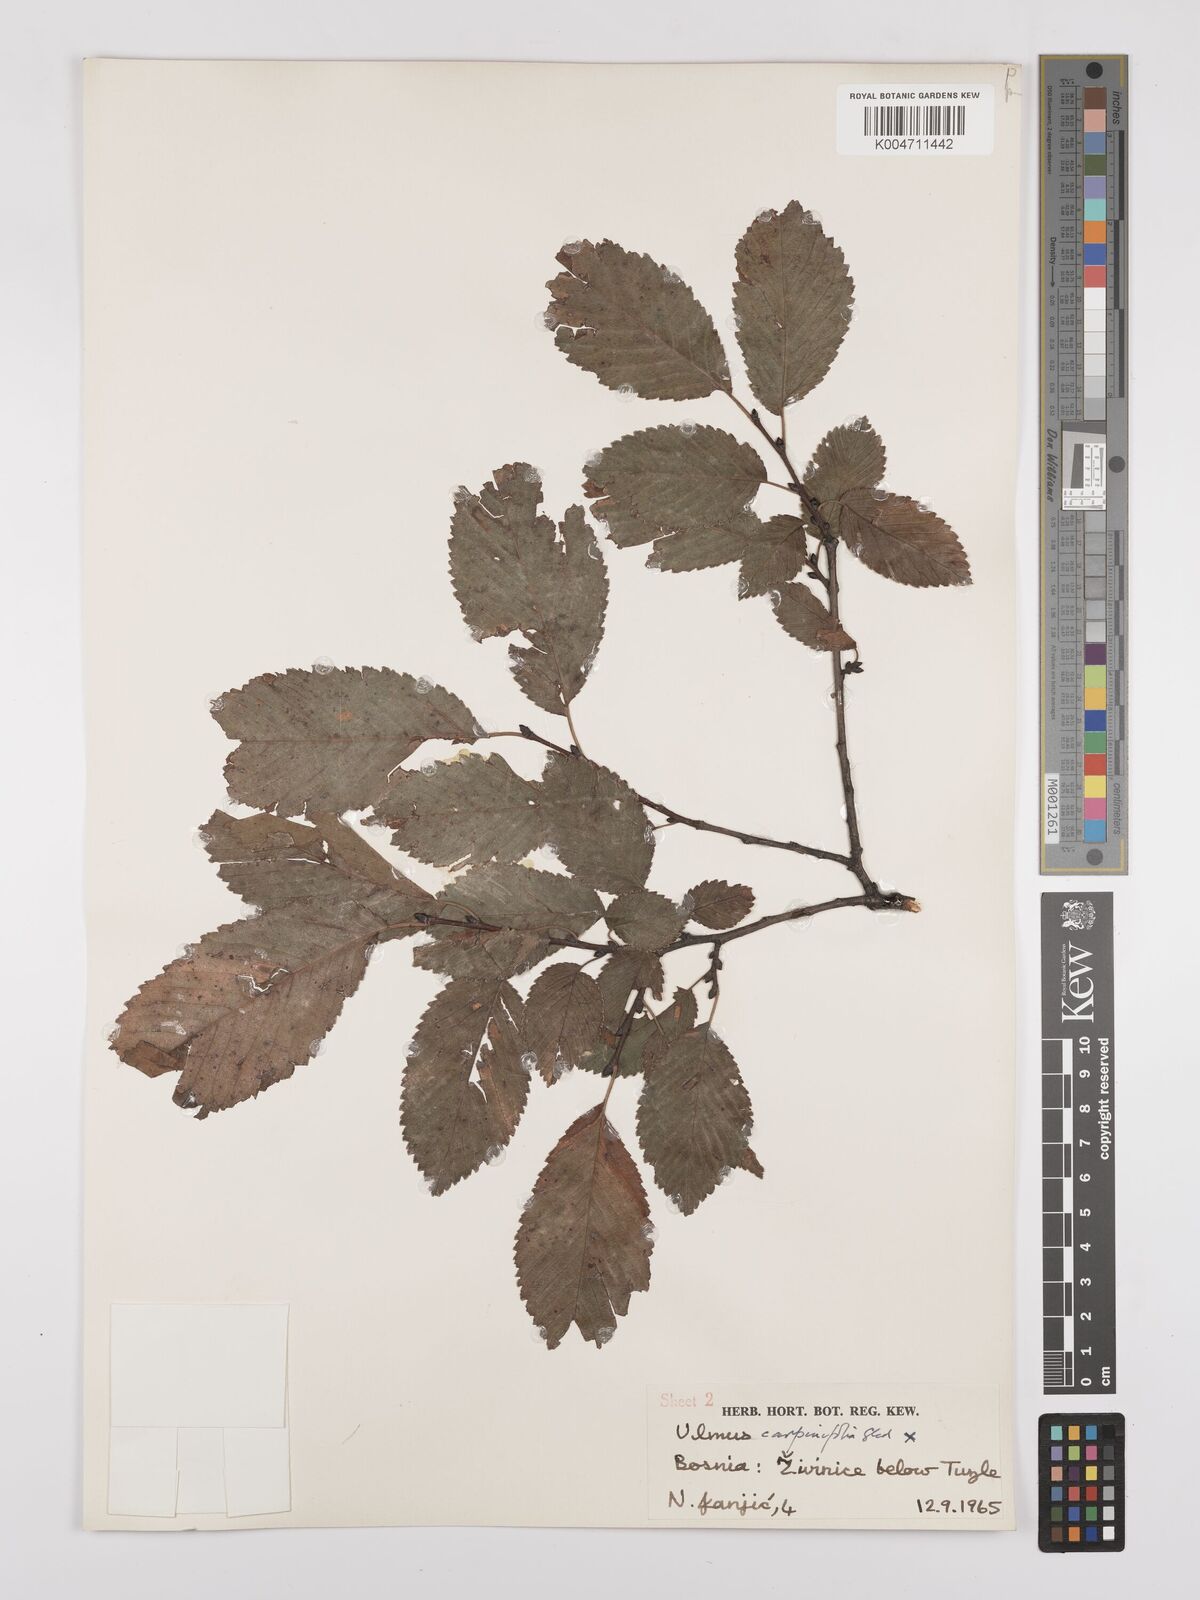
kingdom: Plantae
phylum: Tracheophyta
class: Magnoliopsida
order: Rosales
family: Ulmaceae
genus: Ulmus
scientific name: Ulmus minor
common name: Small-leaved elm
